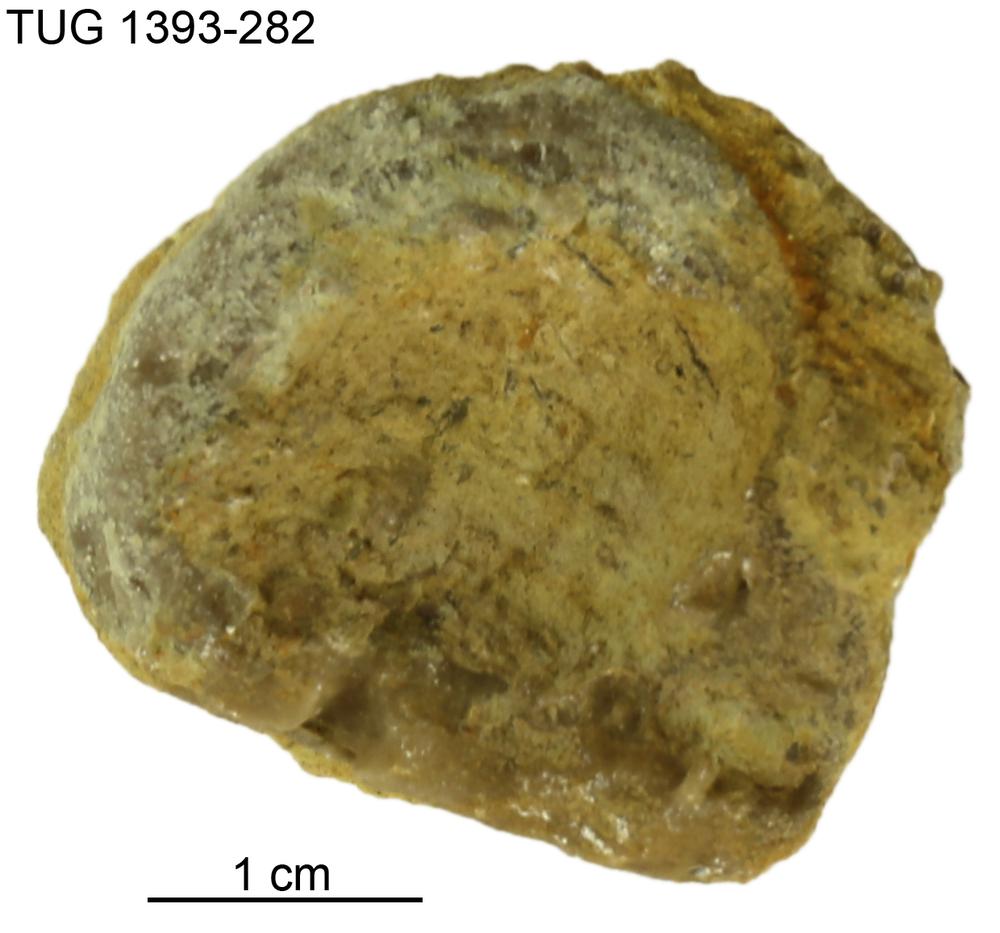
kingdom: Animalia
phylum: Bryozoa
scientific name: Bryozoa
